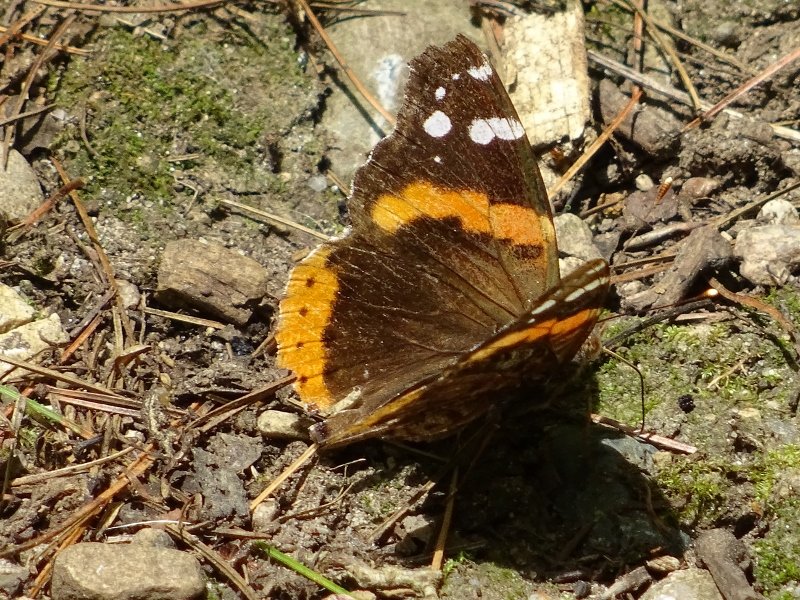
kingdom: Animalia
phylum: Arthropoda
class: Insecta
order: Lepidoptera
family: Nymphalidae
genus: Vanessa
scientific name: Vanessa atalanta
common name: Red Admiral
